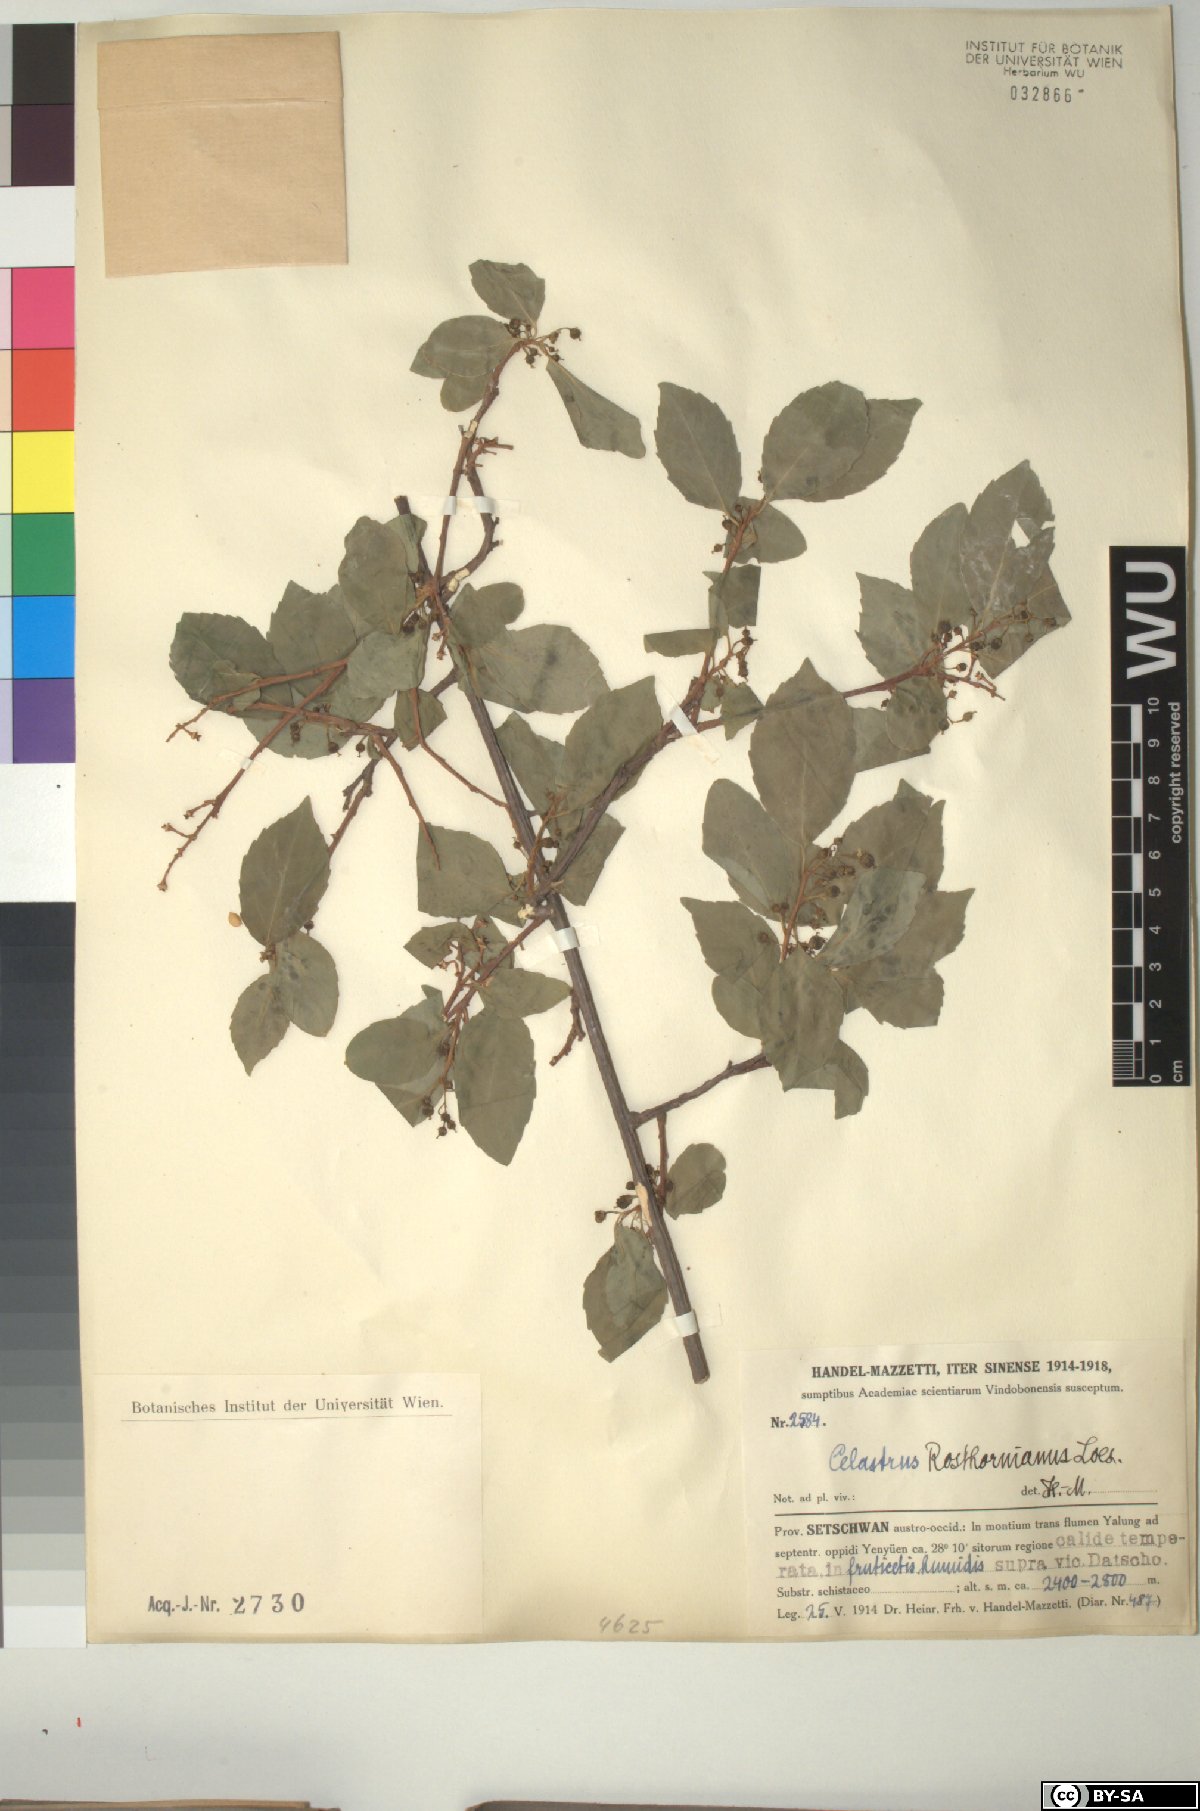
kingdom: Plantae
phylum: Tracheophyta
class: Magnoliopsida
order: Celastrales
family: Celastraceae
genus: Celastrus
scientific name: Celastrus rosthornianus
